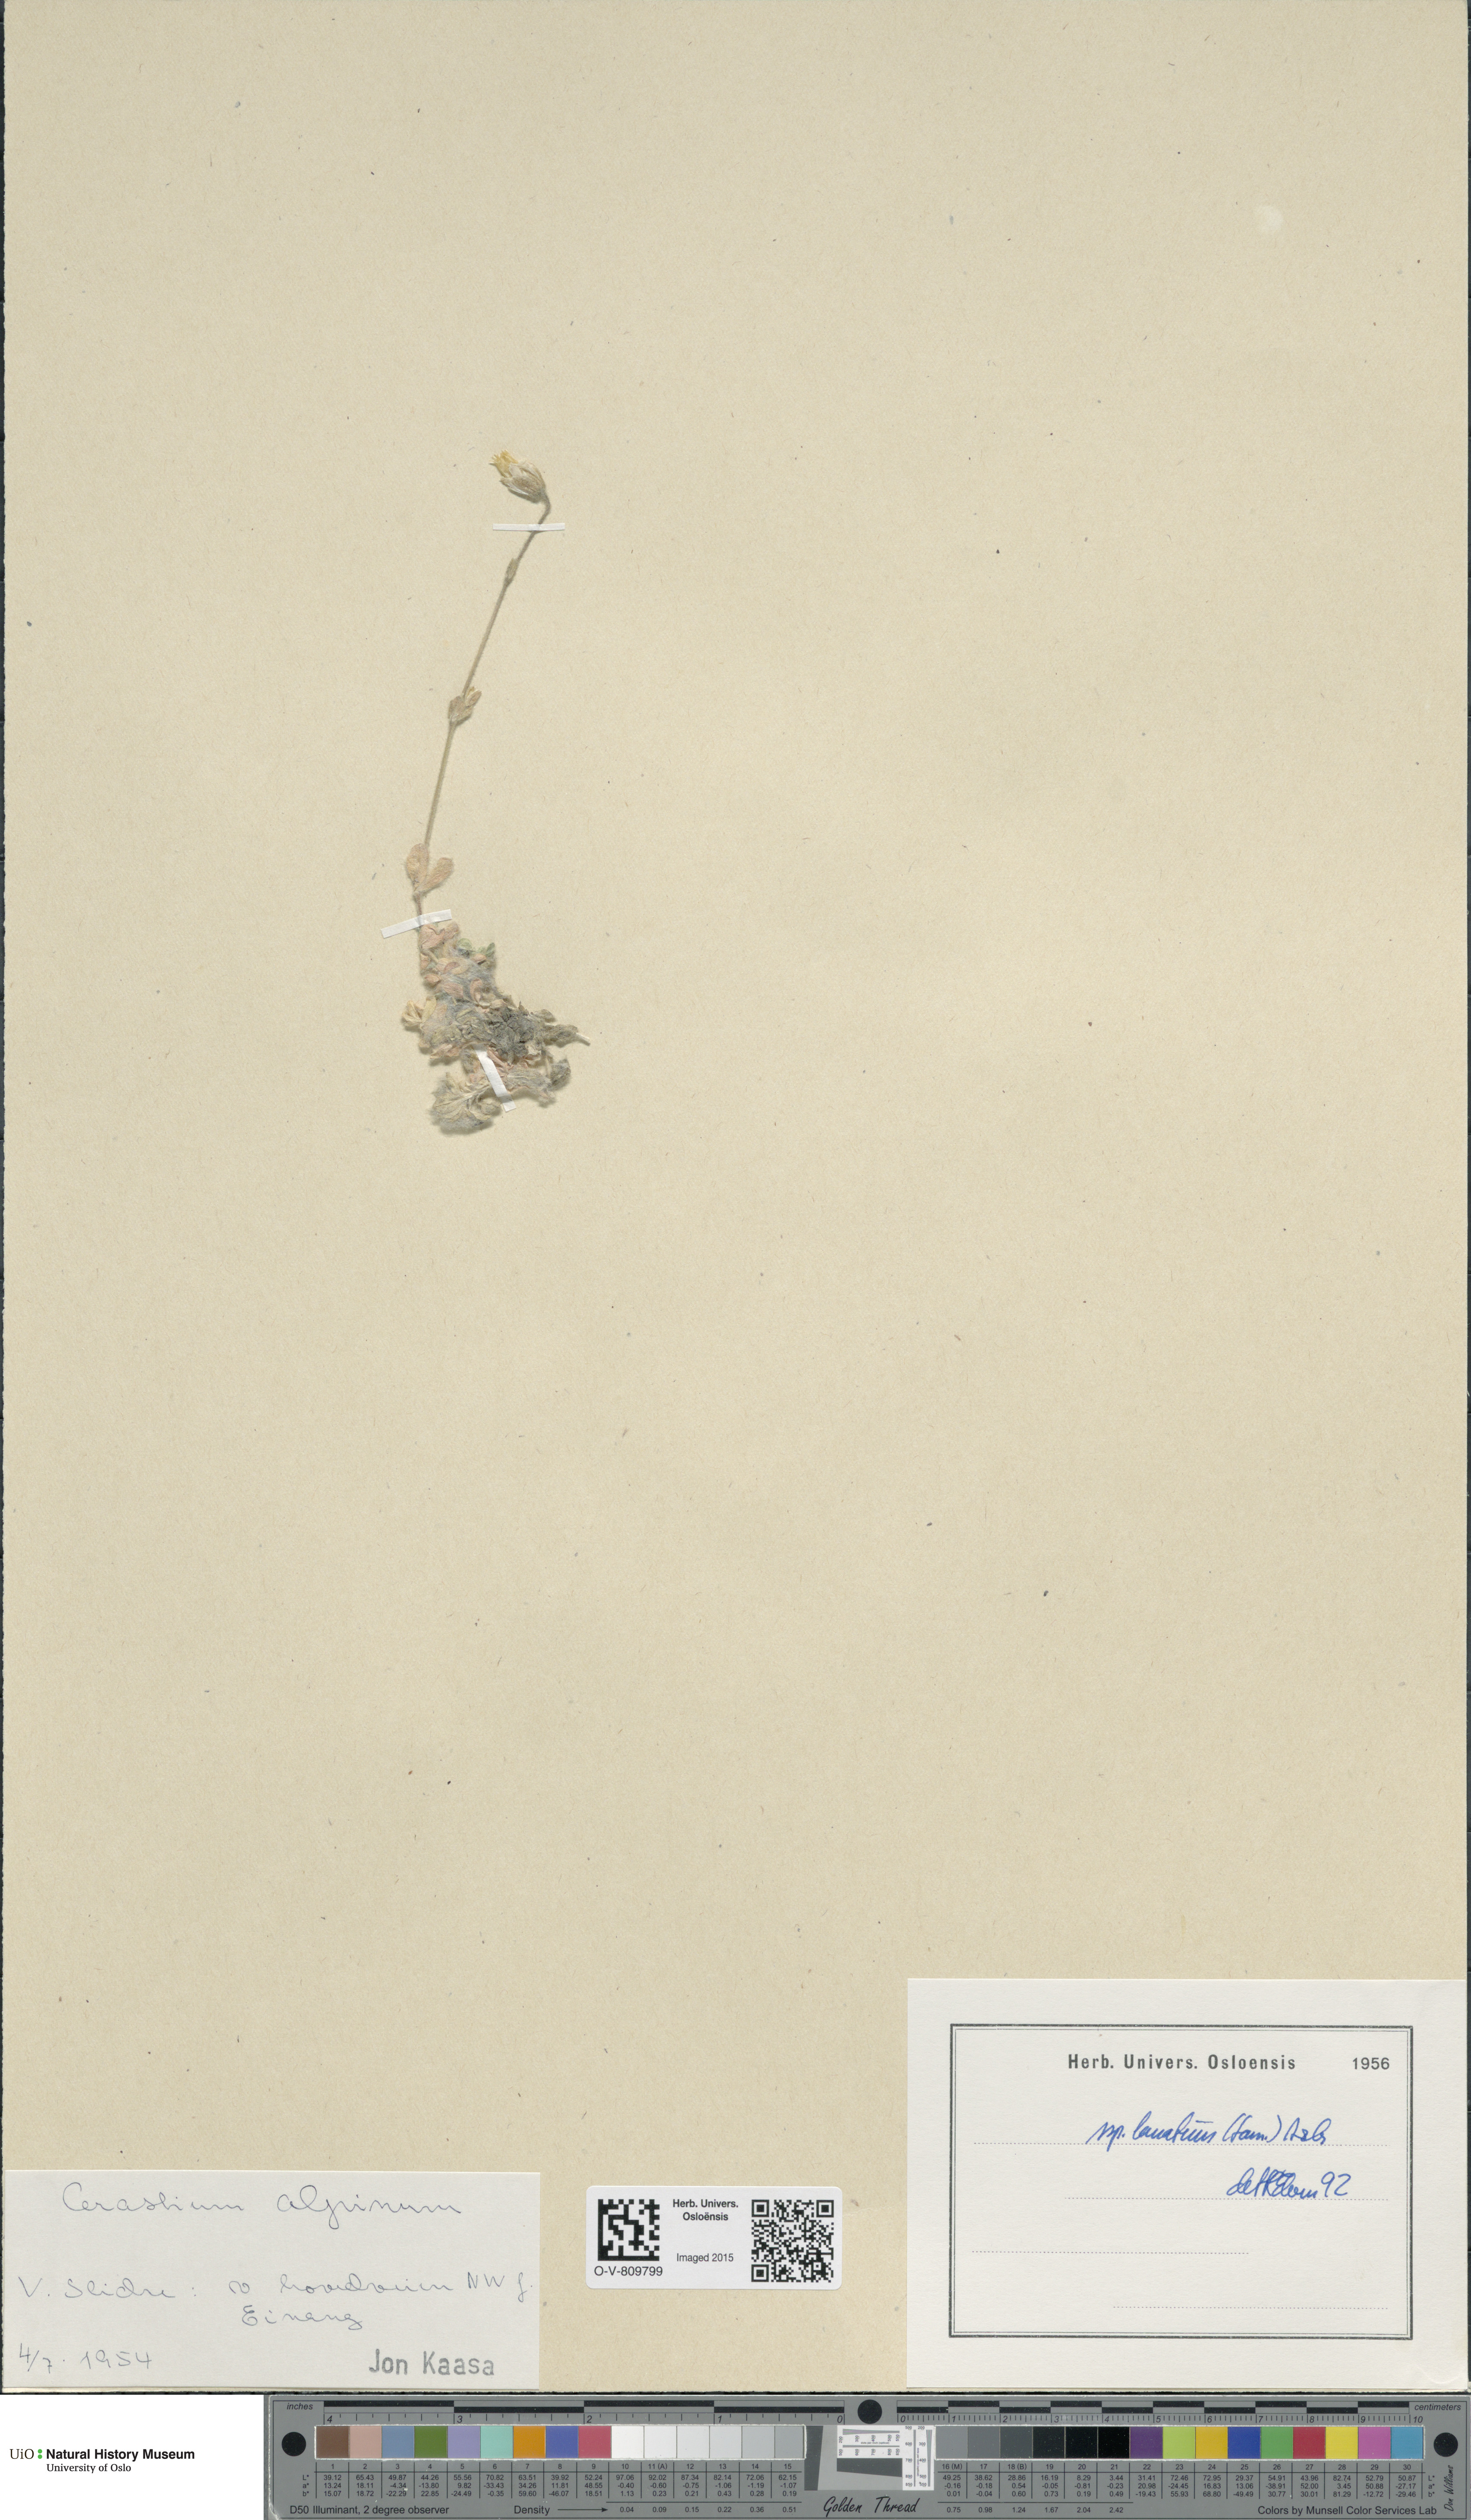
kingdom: Plantae
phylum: Tracheophyta
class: Magnoliopsida
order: Caryophyllales
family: Caryophyllaceae
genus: Cerastium
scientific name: Cerastium alpinum
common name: Alpine mouse-ear
